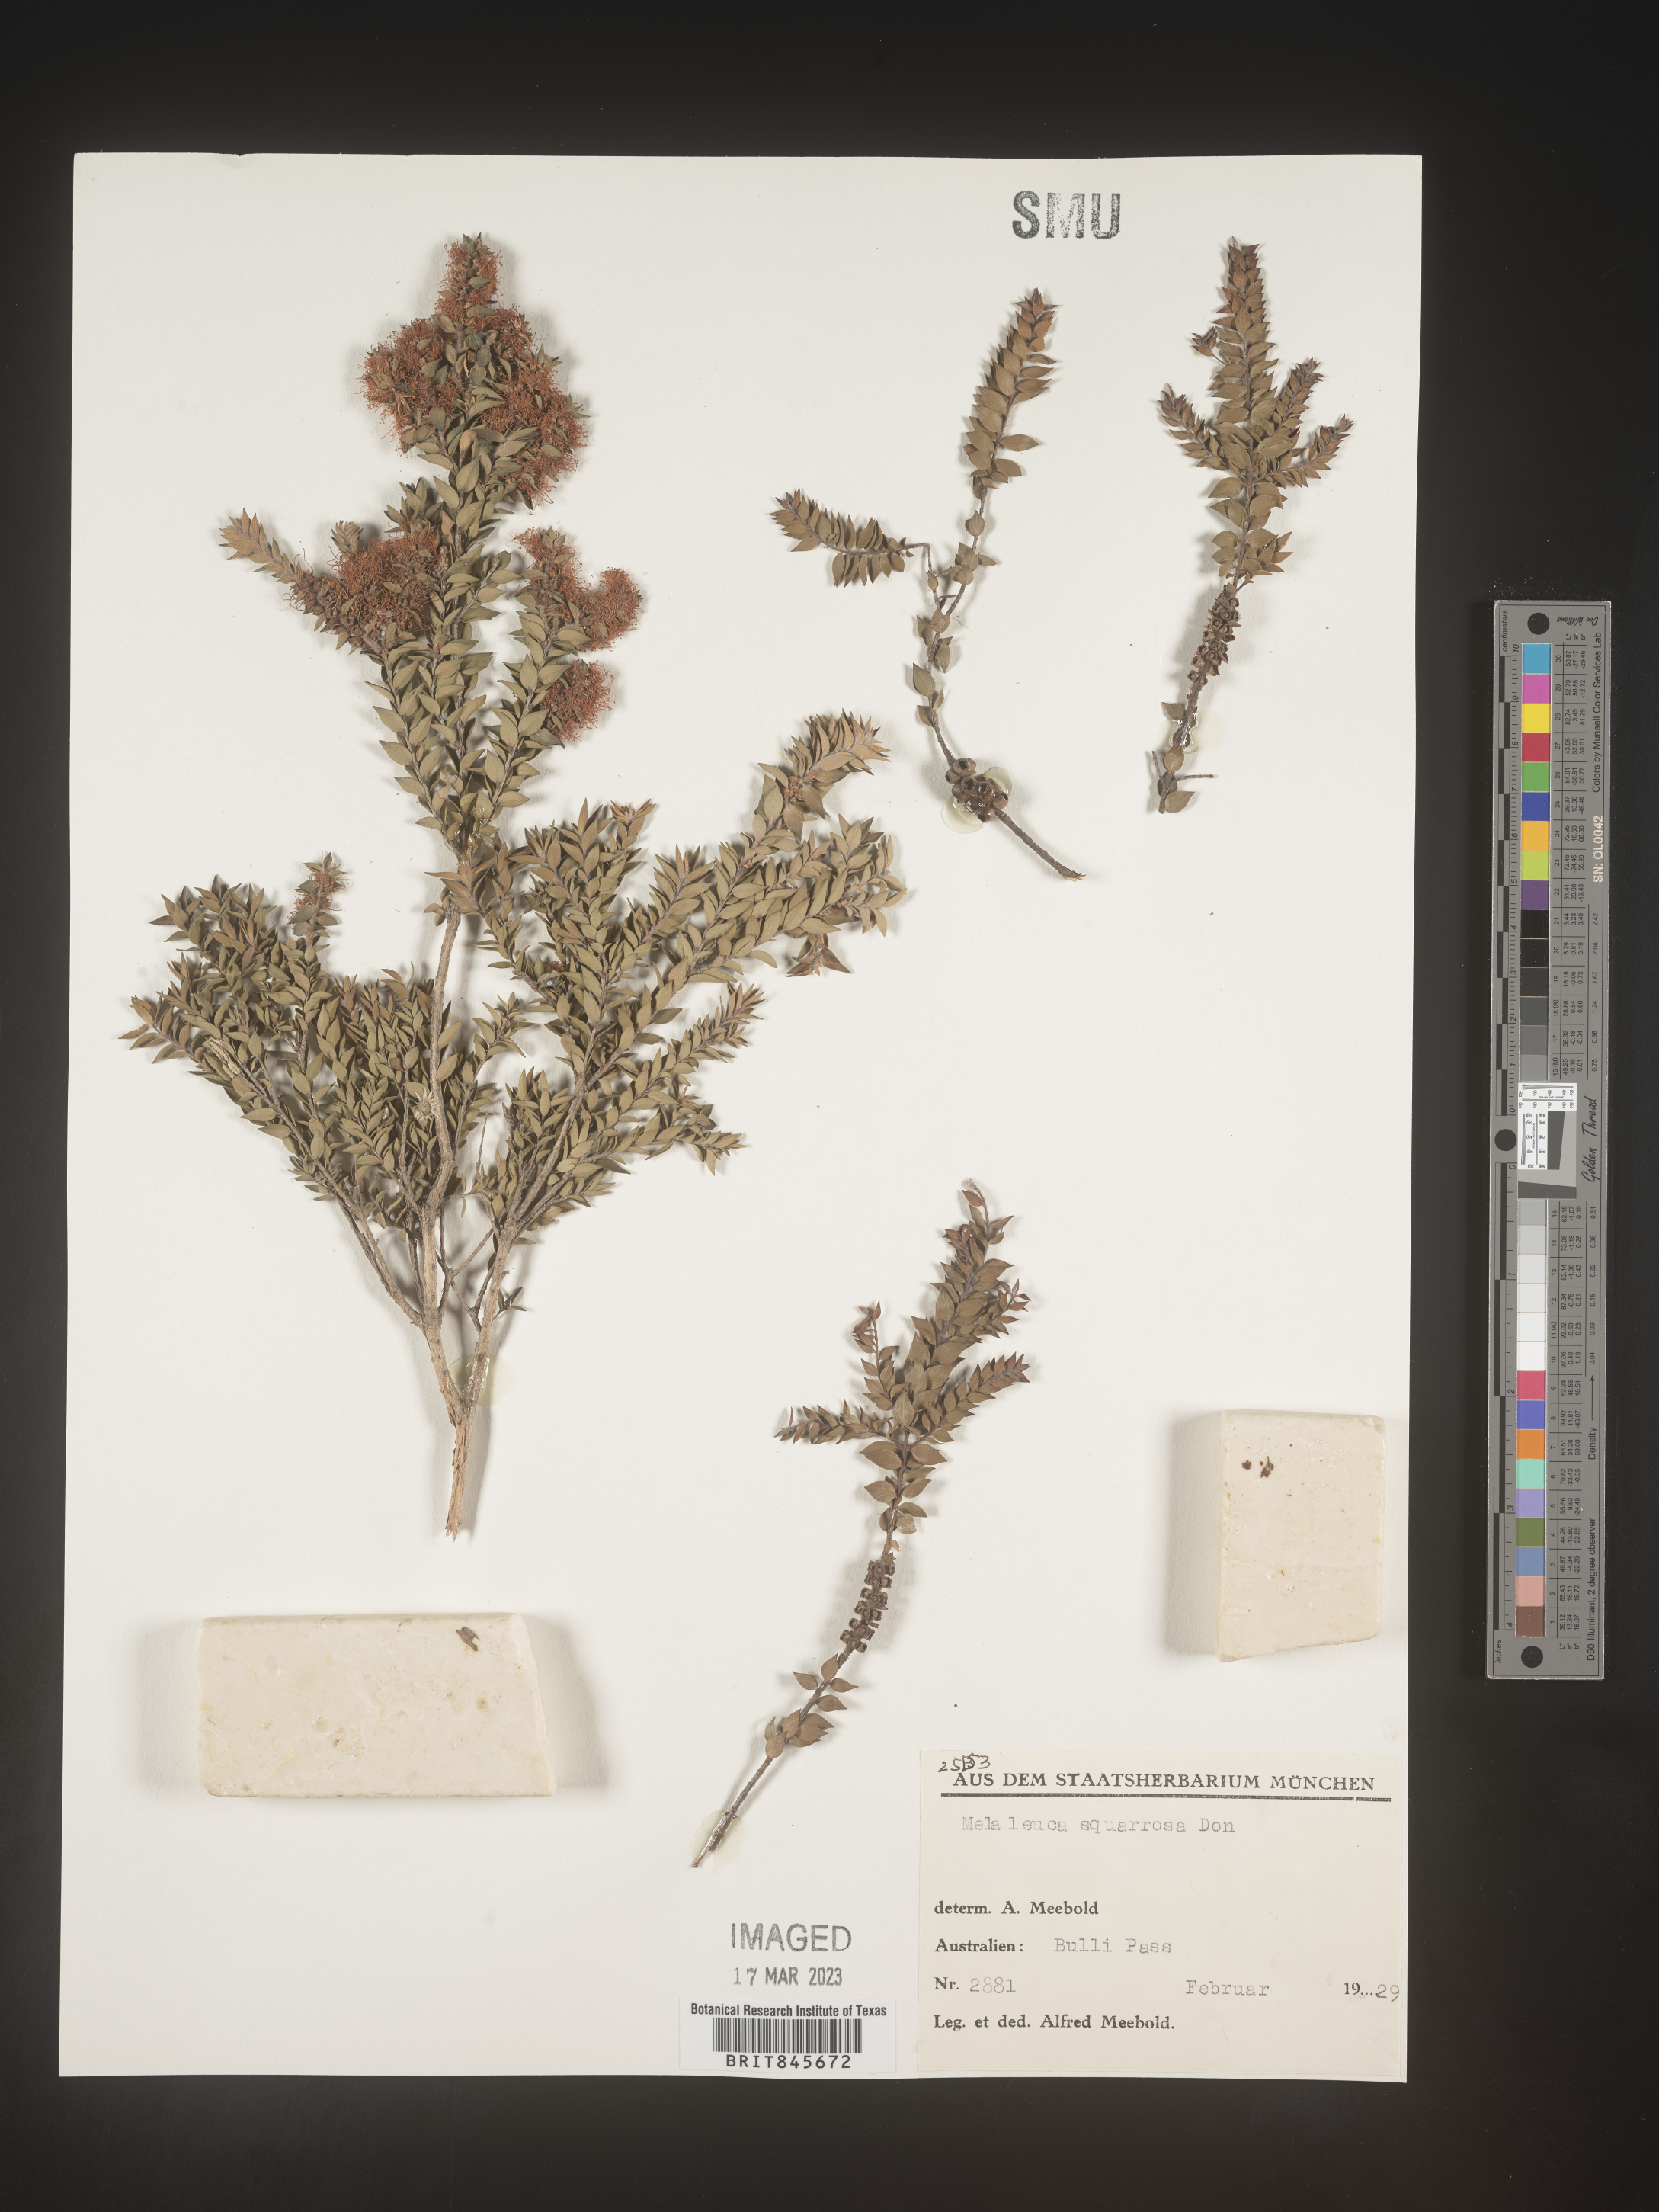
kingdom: Plantae
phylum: Tracheophyta
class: Magnoliopsida
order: Myrtales
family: Myrtaceae
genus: Melaleuca
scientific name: Melaleuca
